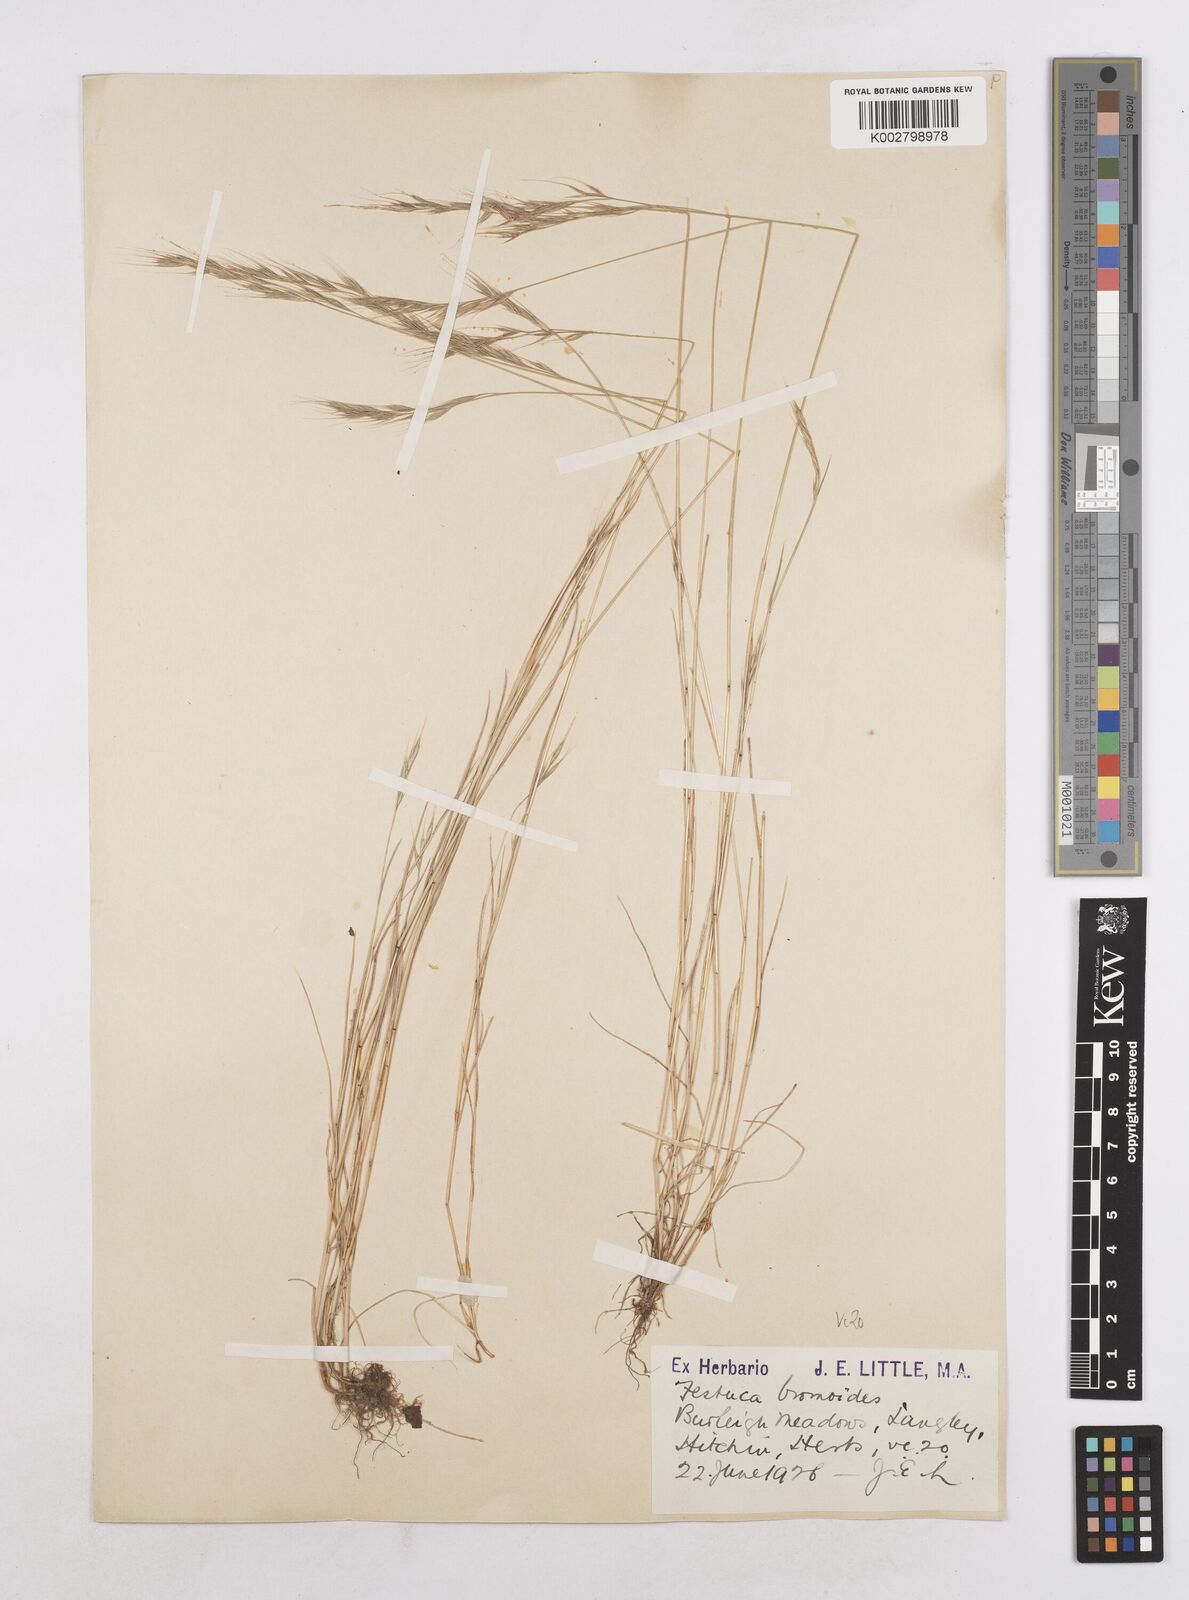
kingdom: Plantae
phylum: Tracheophyta
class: Liliopsida
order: Poales
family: Poaceae
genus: Festuca
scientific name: Festuca bromoides
